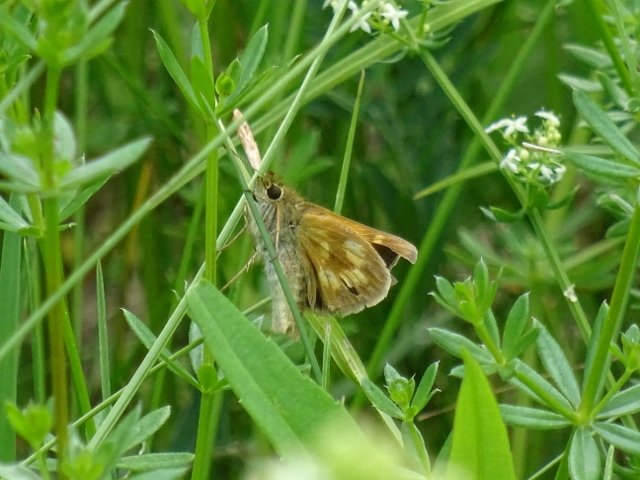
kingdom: Animalia
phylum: Arthropoda
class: Insecta
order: Lepidoptera
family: Hesperiidae
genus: Polites
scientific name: Polites
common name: Long Dash Skipper
